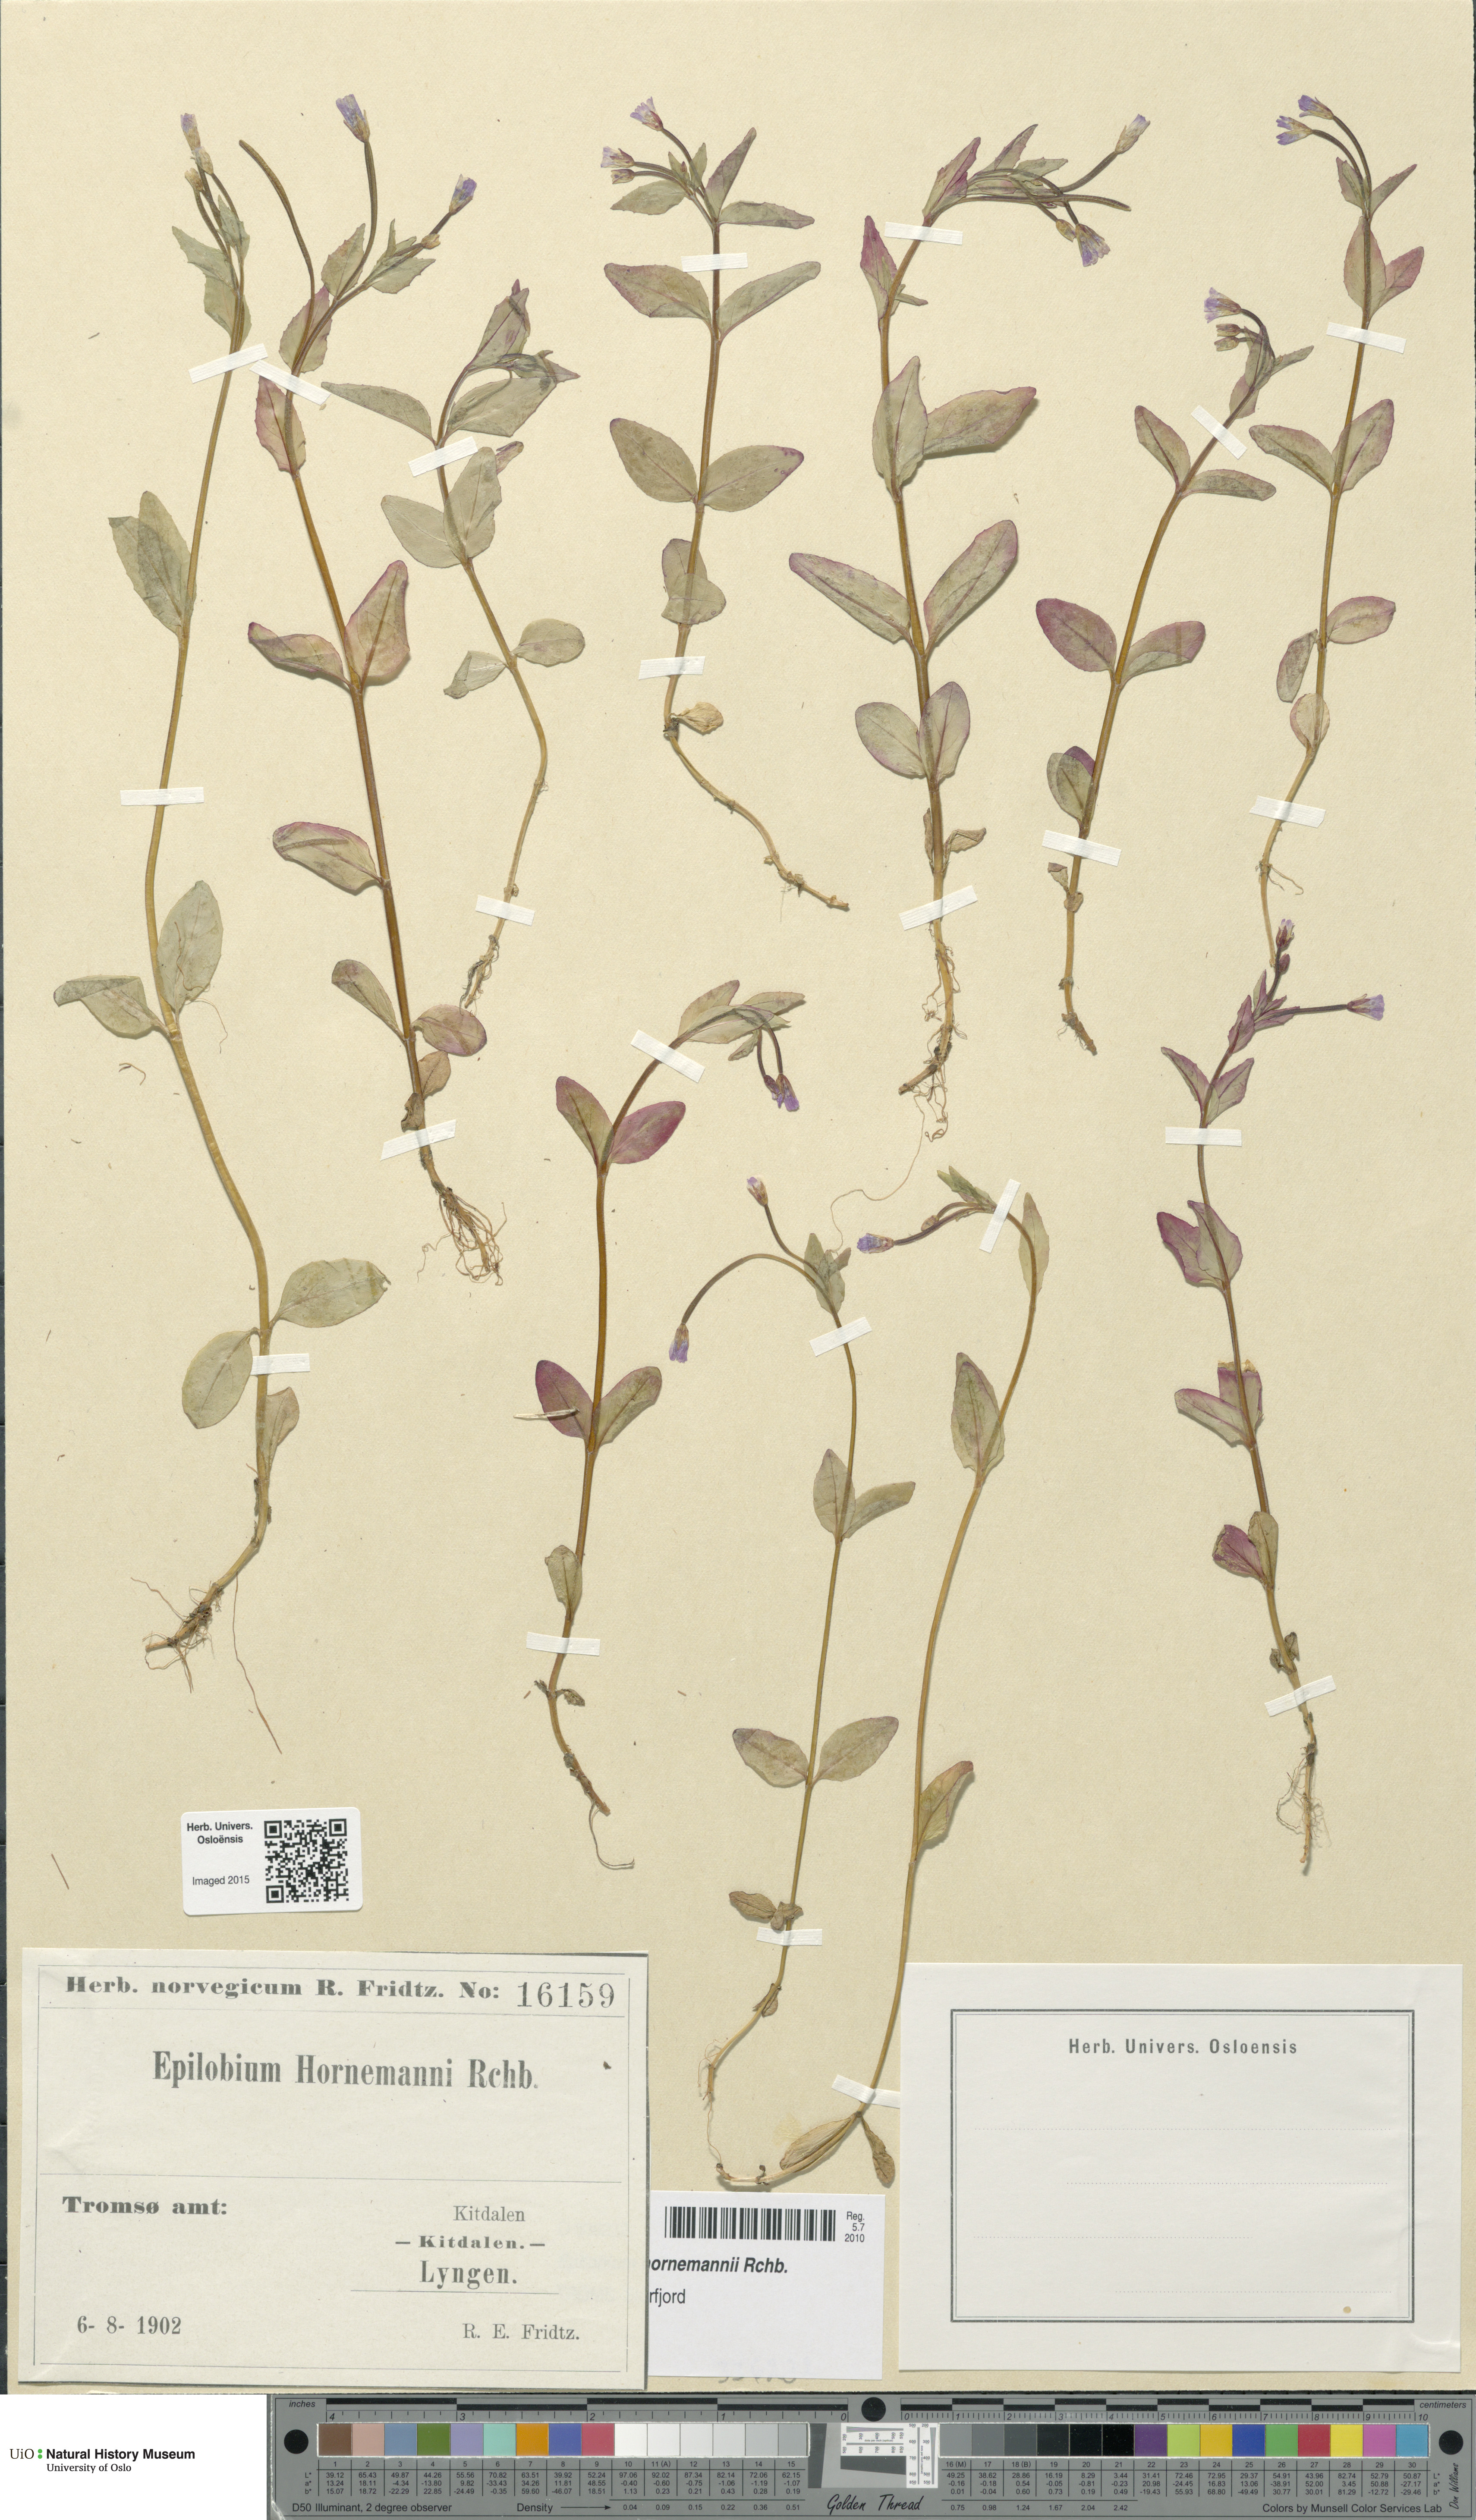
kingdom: Plantae
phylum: Tracheophyta
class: Magnoliopsida
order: Myrtales
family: Onagraceae
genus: Epilobium
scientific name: Epilobium hornemannii
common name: Hornemann's willowherb
